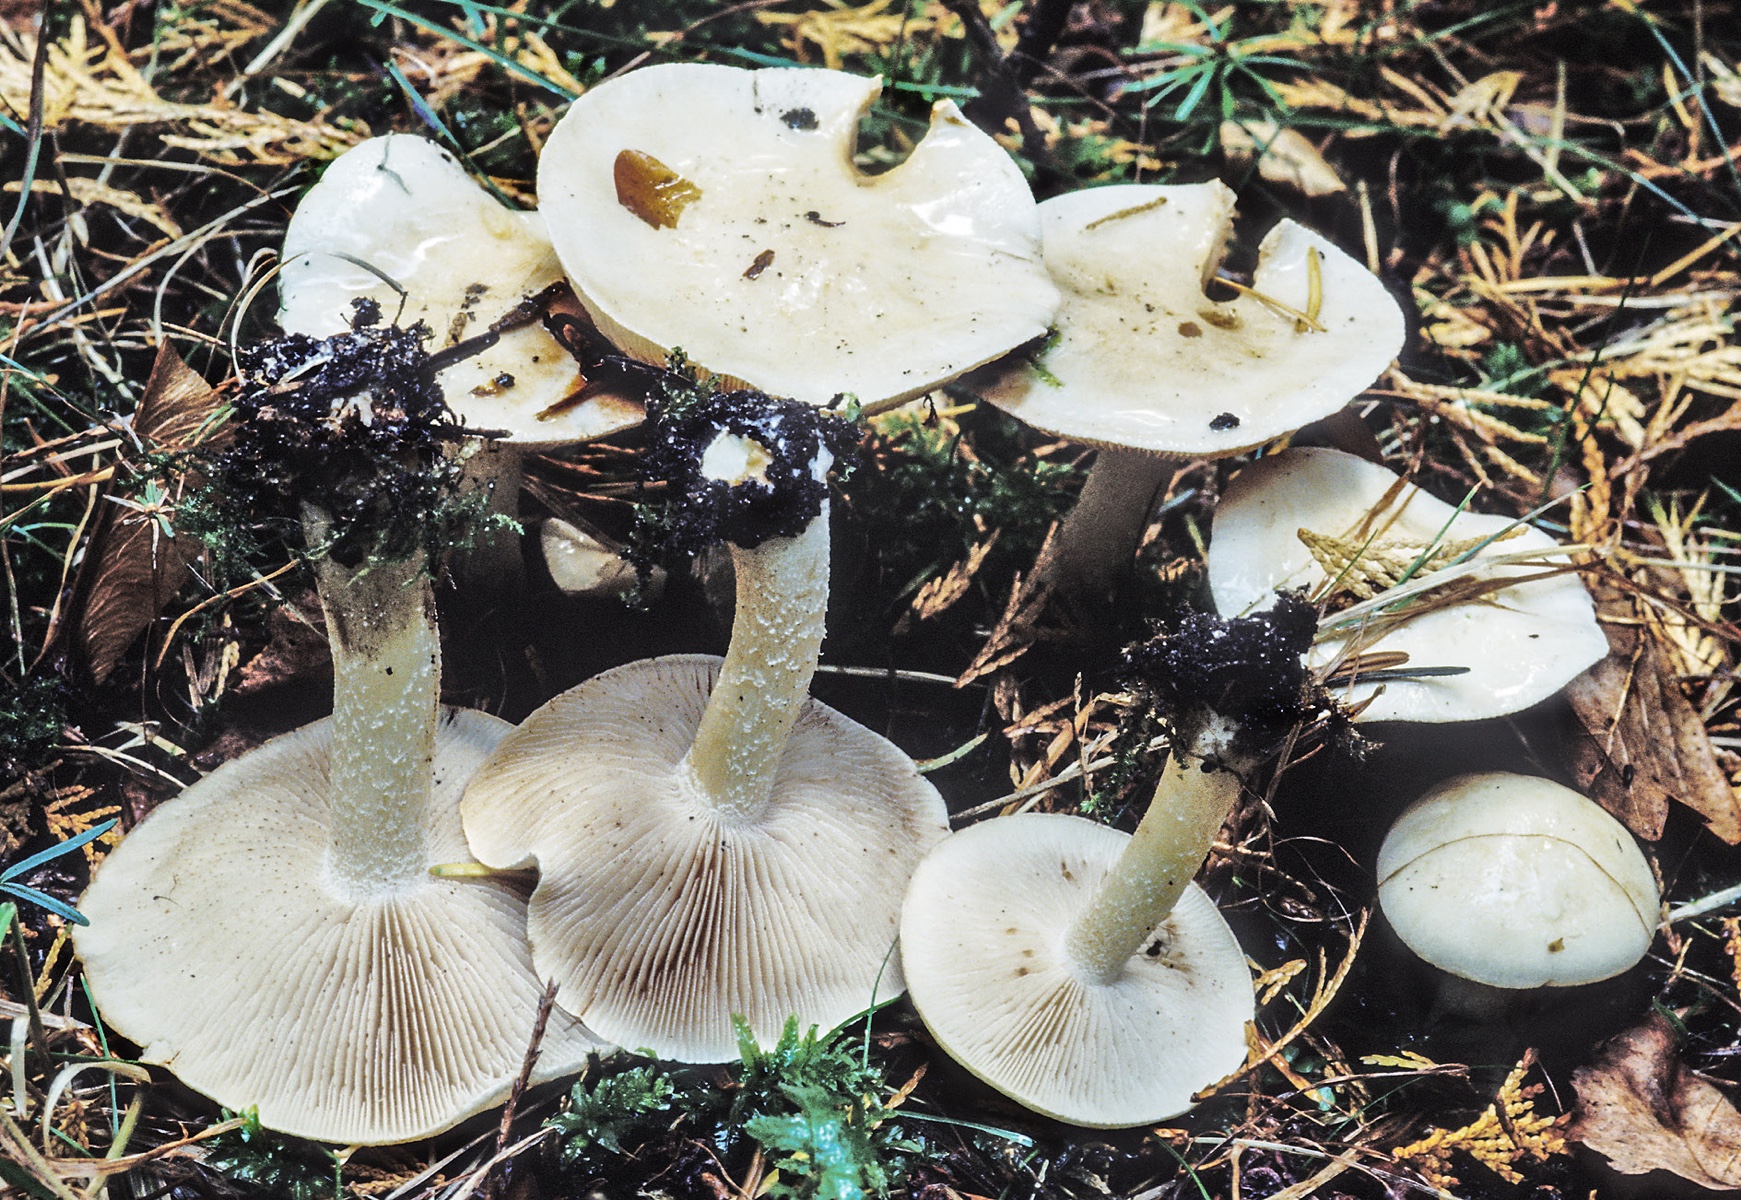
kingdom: Fungi
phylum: Basidiomycota
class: Agaricomycetes
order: Agaricales
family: Hymenogastraceae
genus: Hebeloma
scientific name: Hebeloma geminatum
